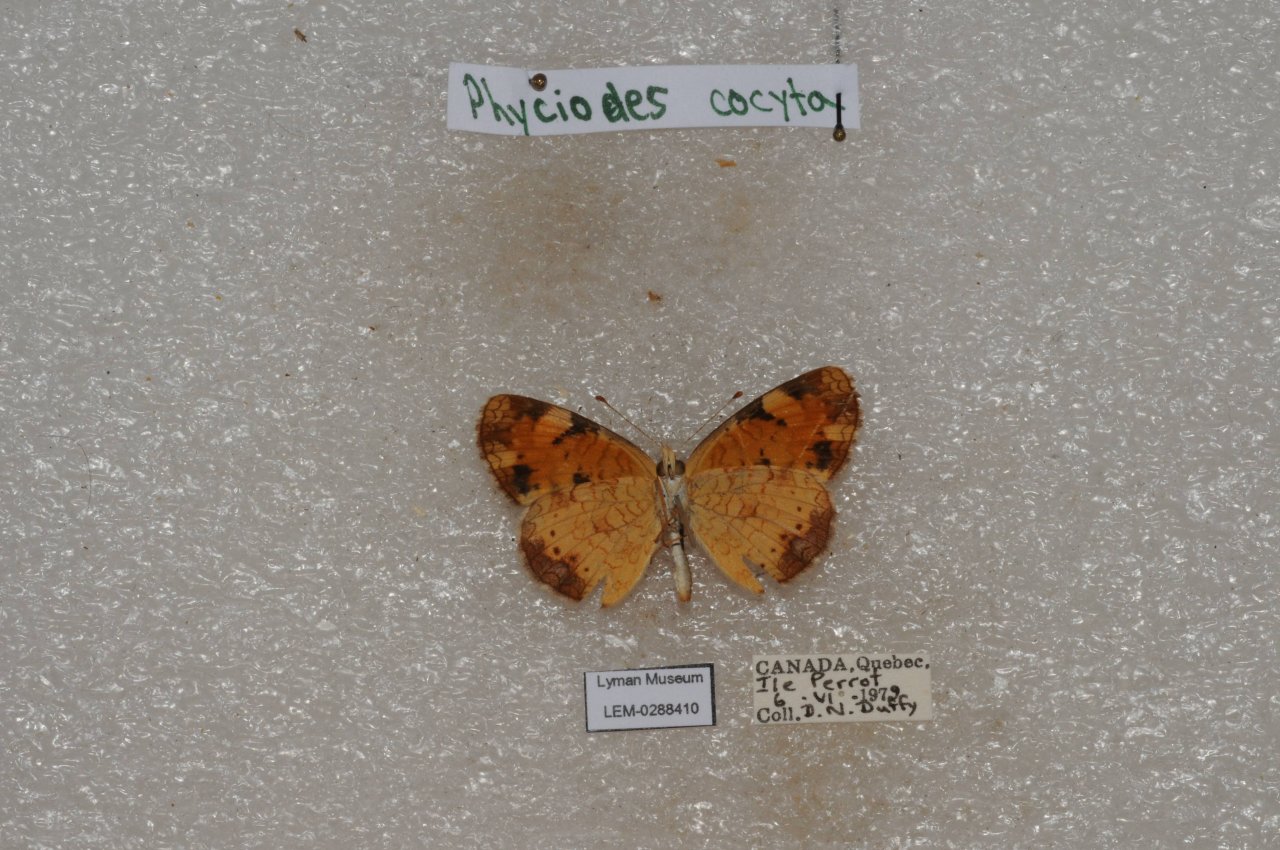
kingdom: Animalia
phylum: Arthropoda
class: Insecta
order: Lepidoptera
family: Nymphalidae
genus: Phyciodes
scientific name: Phyciodes tharos
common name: Northern Crescent
